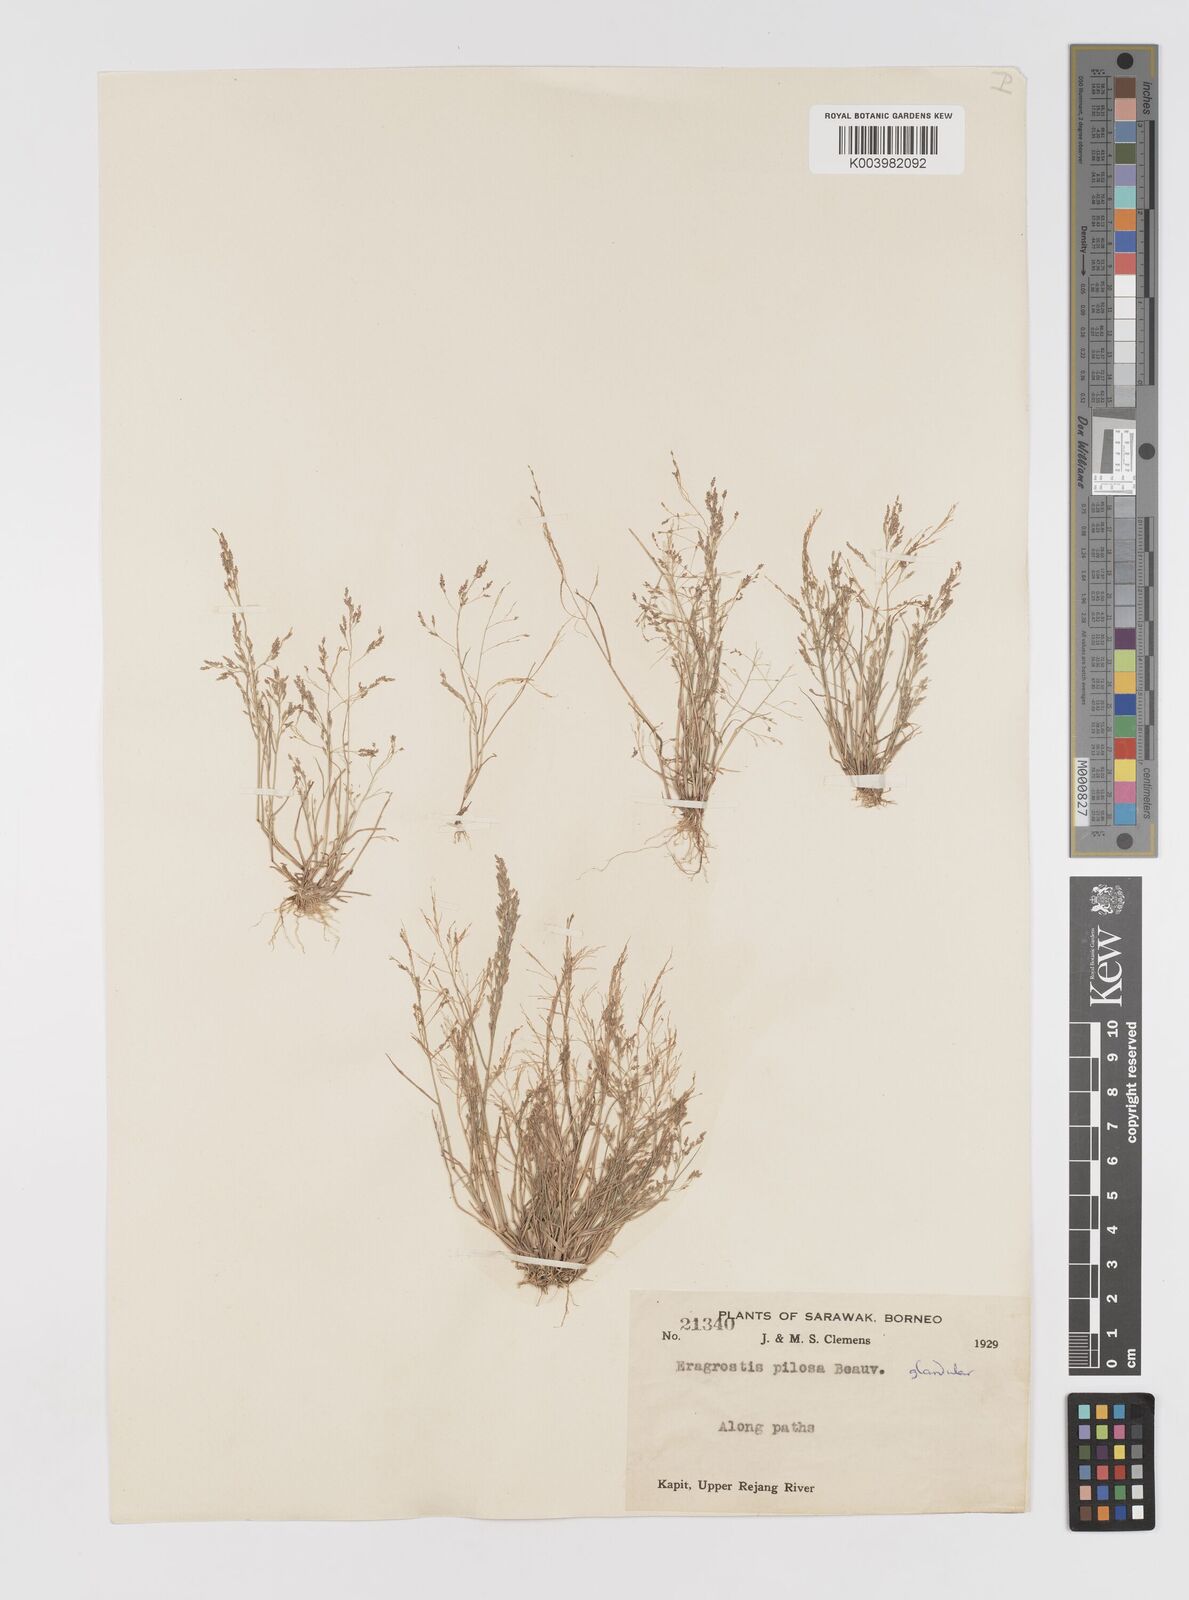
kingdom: Plantae
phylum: Tracheophyta
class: Liliopsida
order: Poales
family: Poaceae
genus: Eragrostis
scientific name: Eragrostis pilosa
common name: Indian lovegrass
